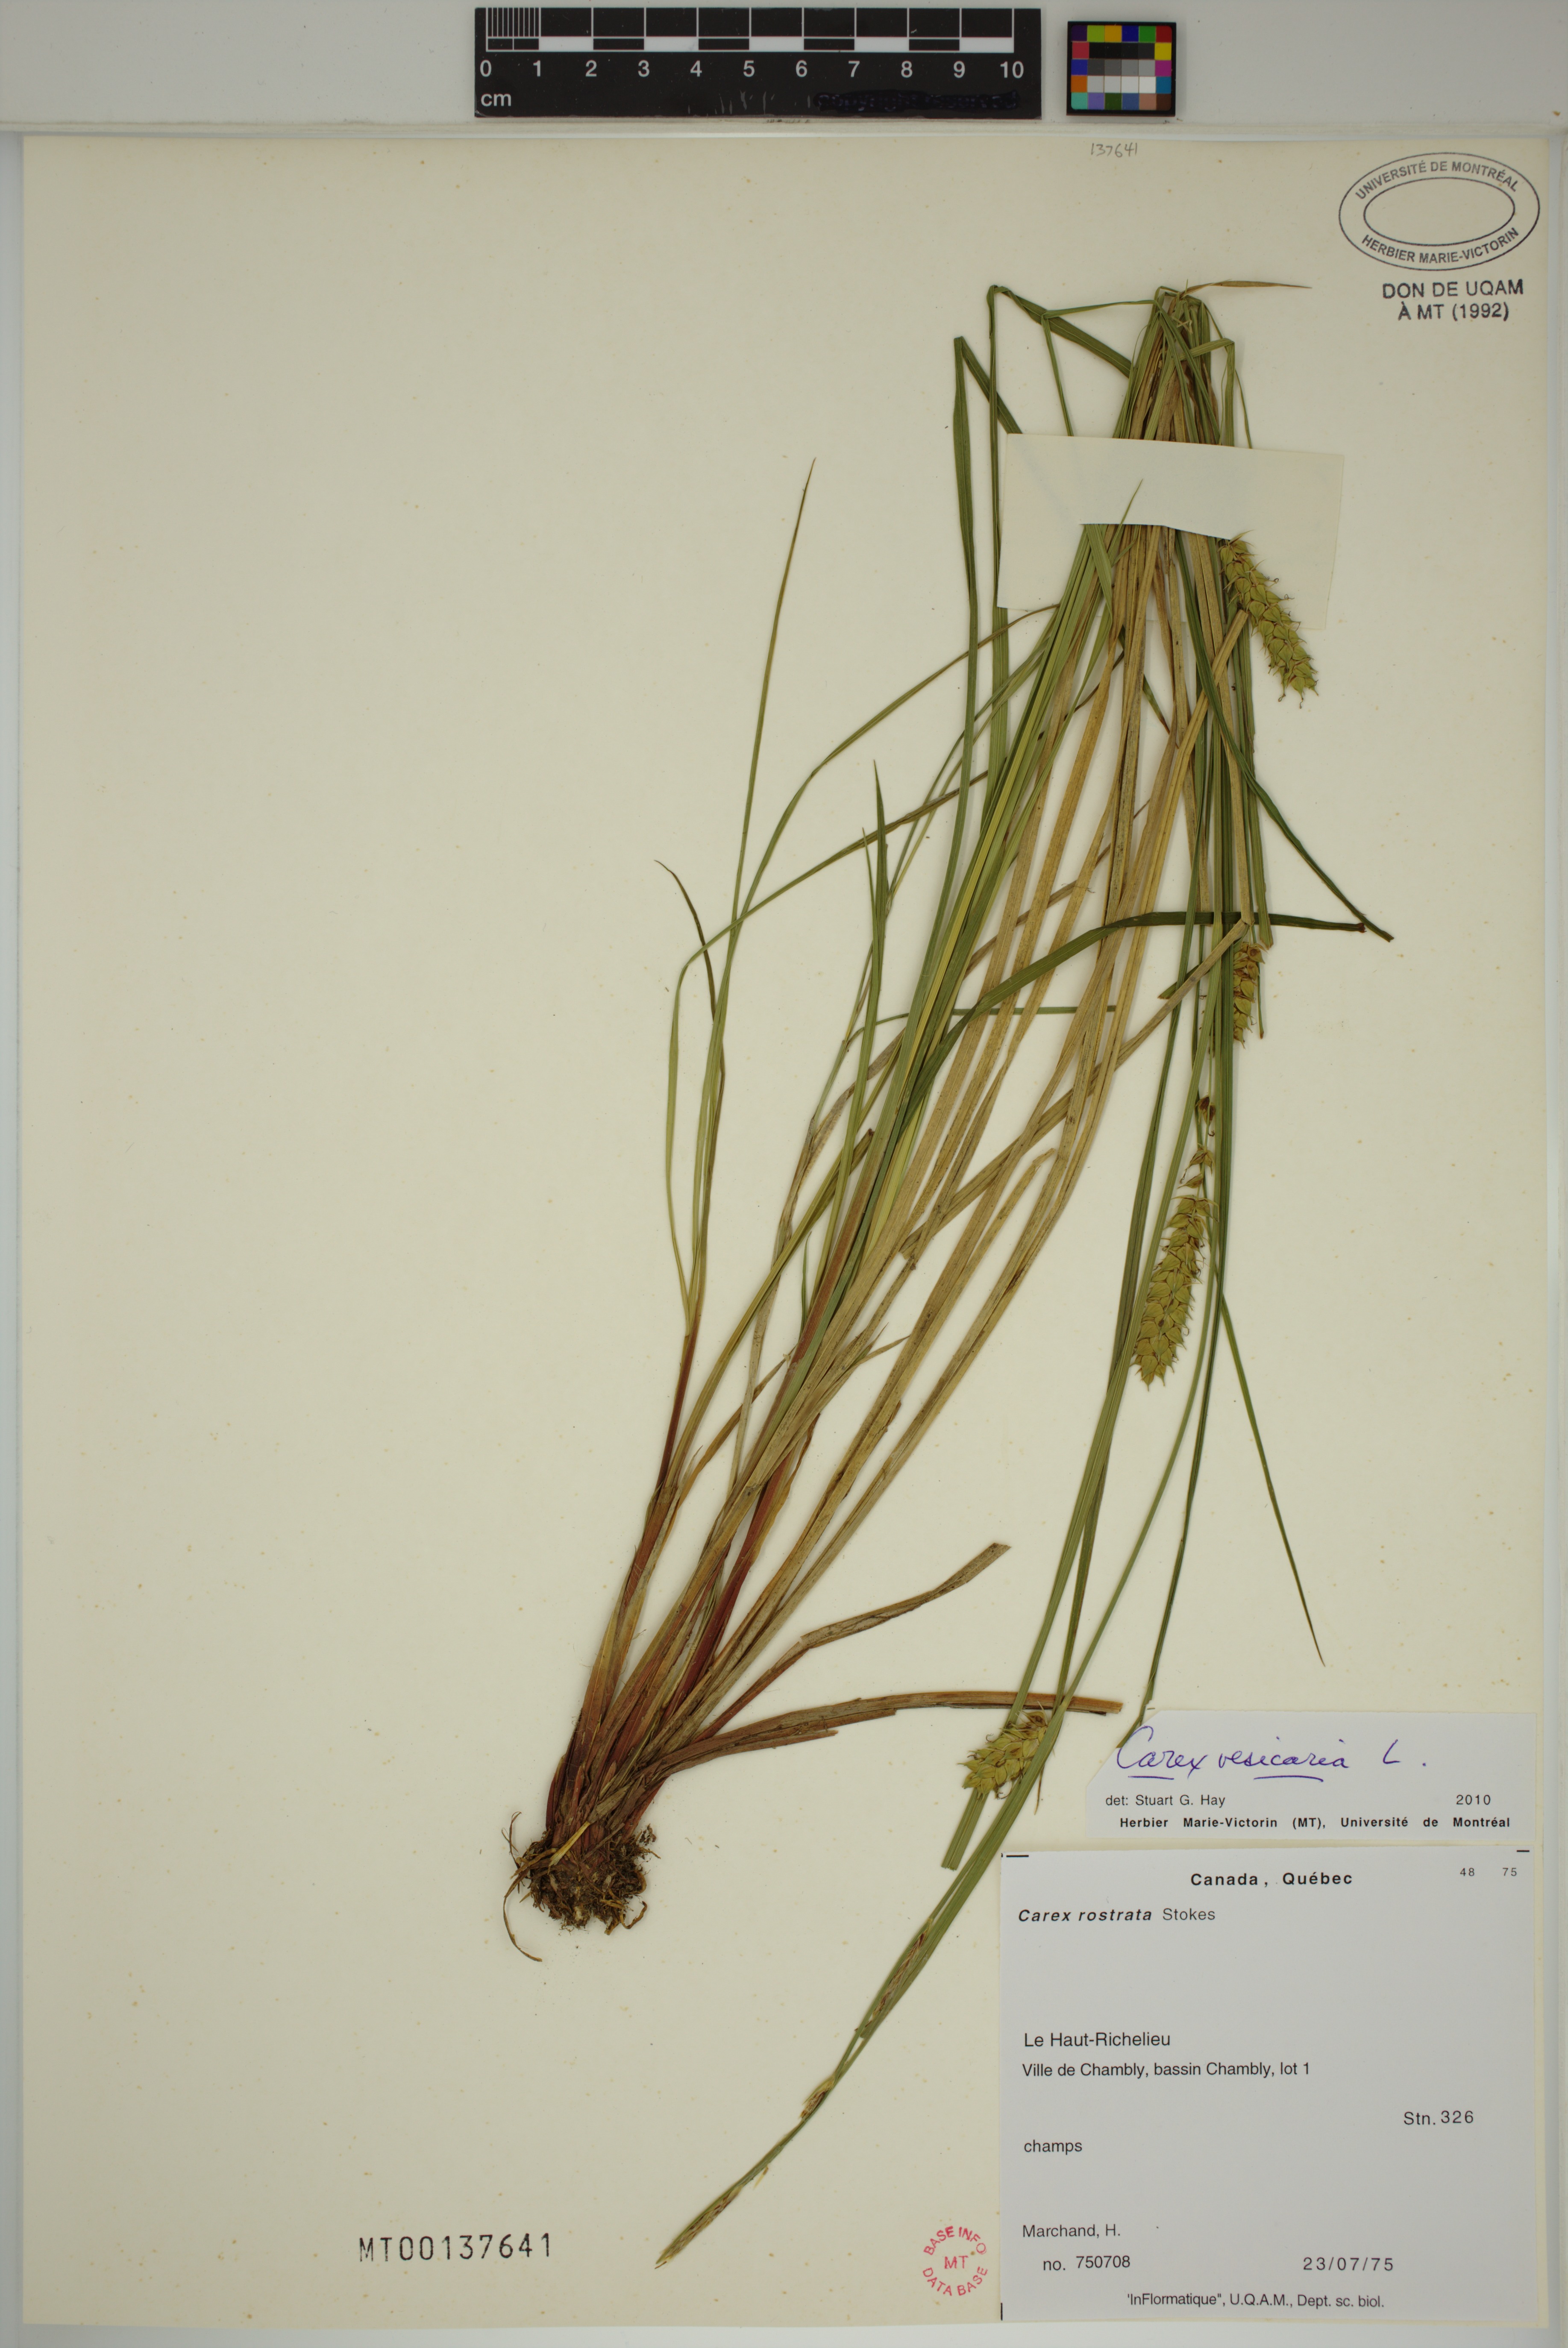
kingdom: Plantae
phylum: Tracheophyta
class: Liliopsida
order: Poales
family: Cyperaceae
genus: Carex
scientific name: Carex vesicaria
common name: Bladder-sedge
